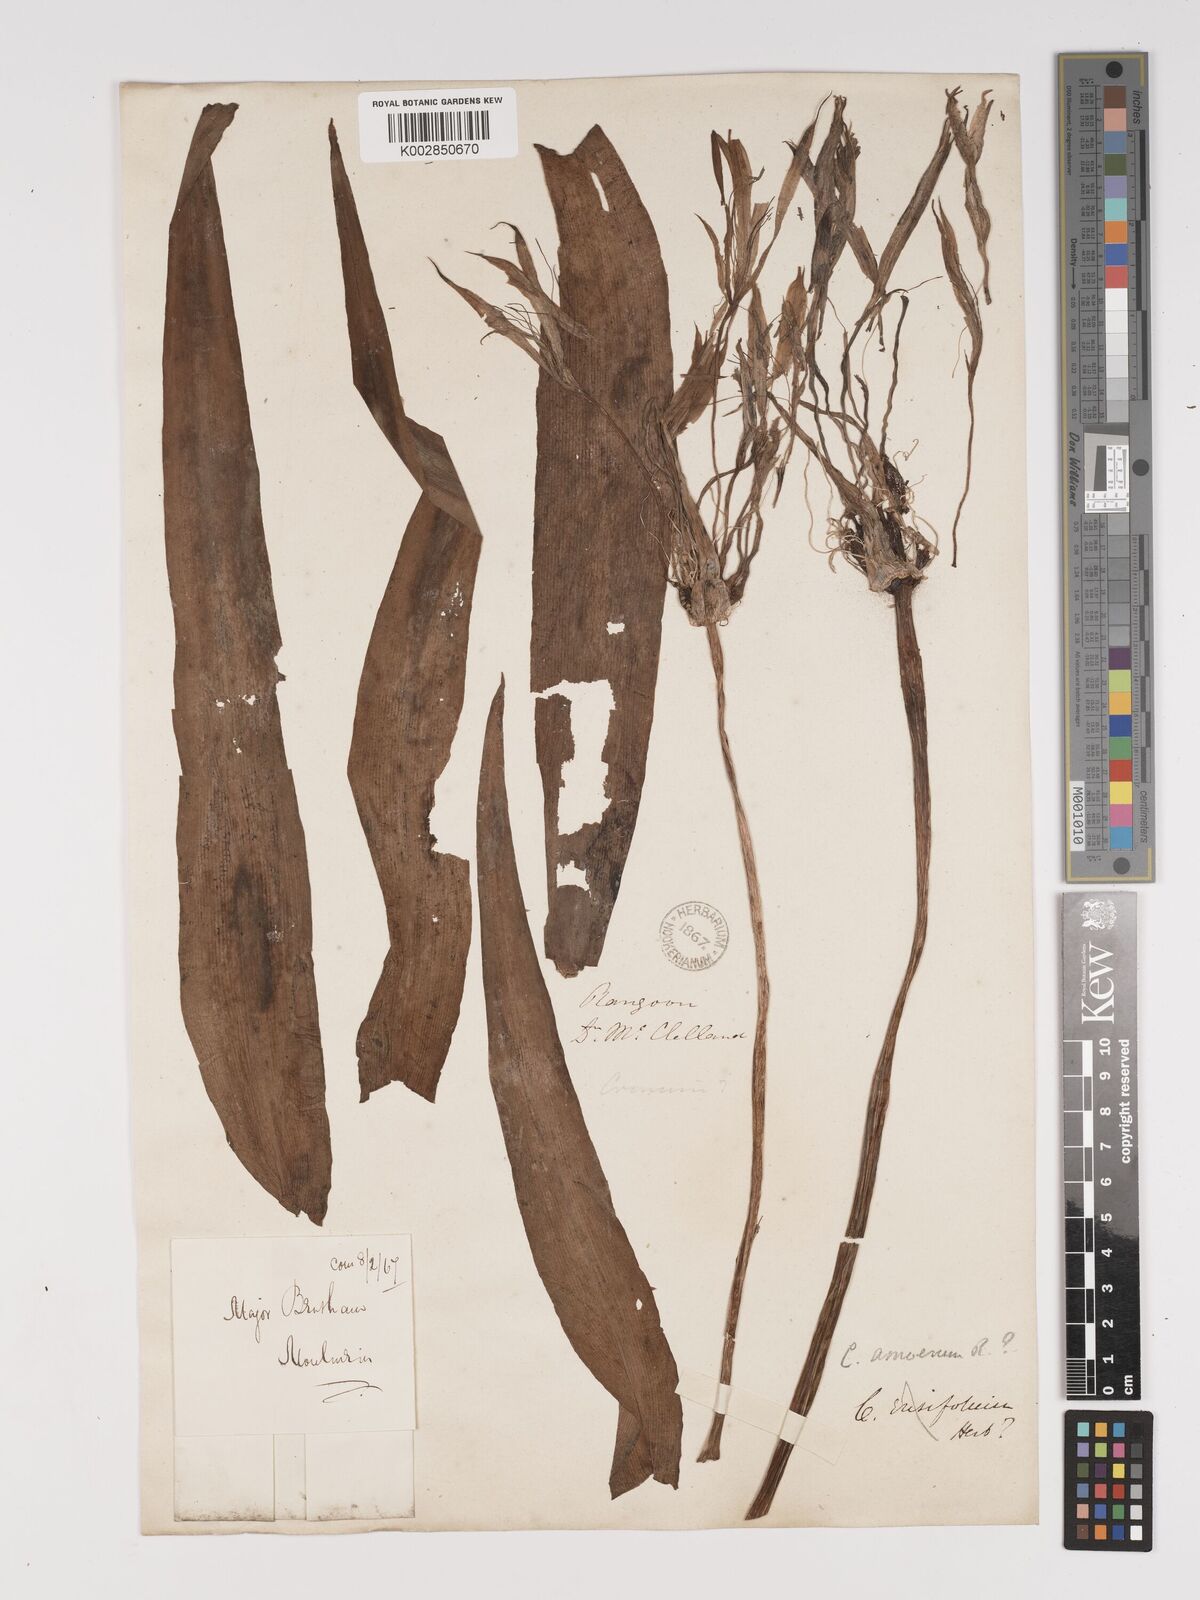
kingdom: Plantae
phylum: Tracheophyta
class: Liliopsida
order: Asparagales
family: Amaryllidaceae
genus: Crinum
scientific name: Crinum amoenum
